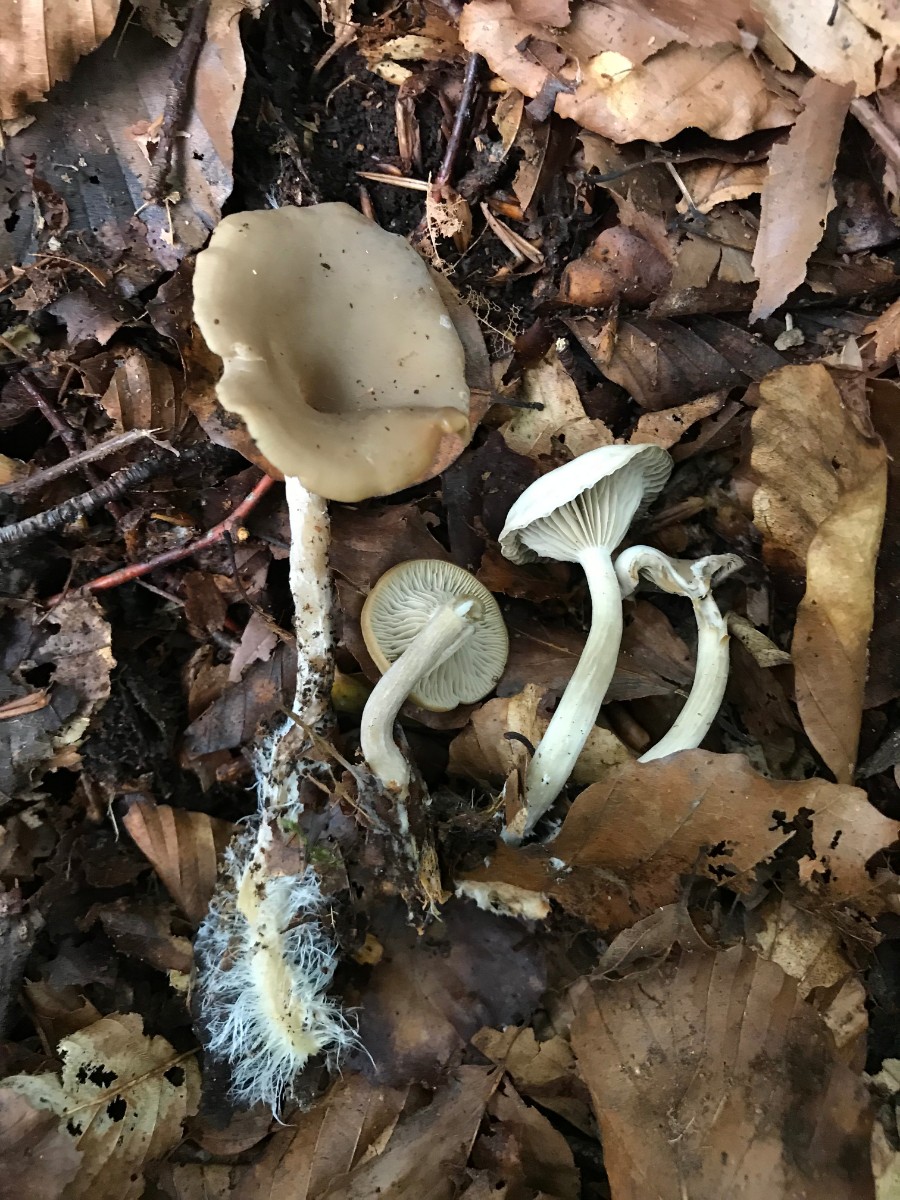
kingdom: Fungi
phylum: Basidiomycota
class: Agaricomycetes
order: Agaricales
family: Tricholomataceae
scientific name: Tricholomataceae
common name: ridderhatfamilien
